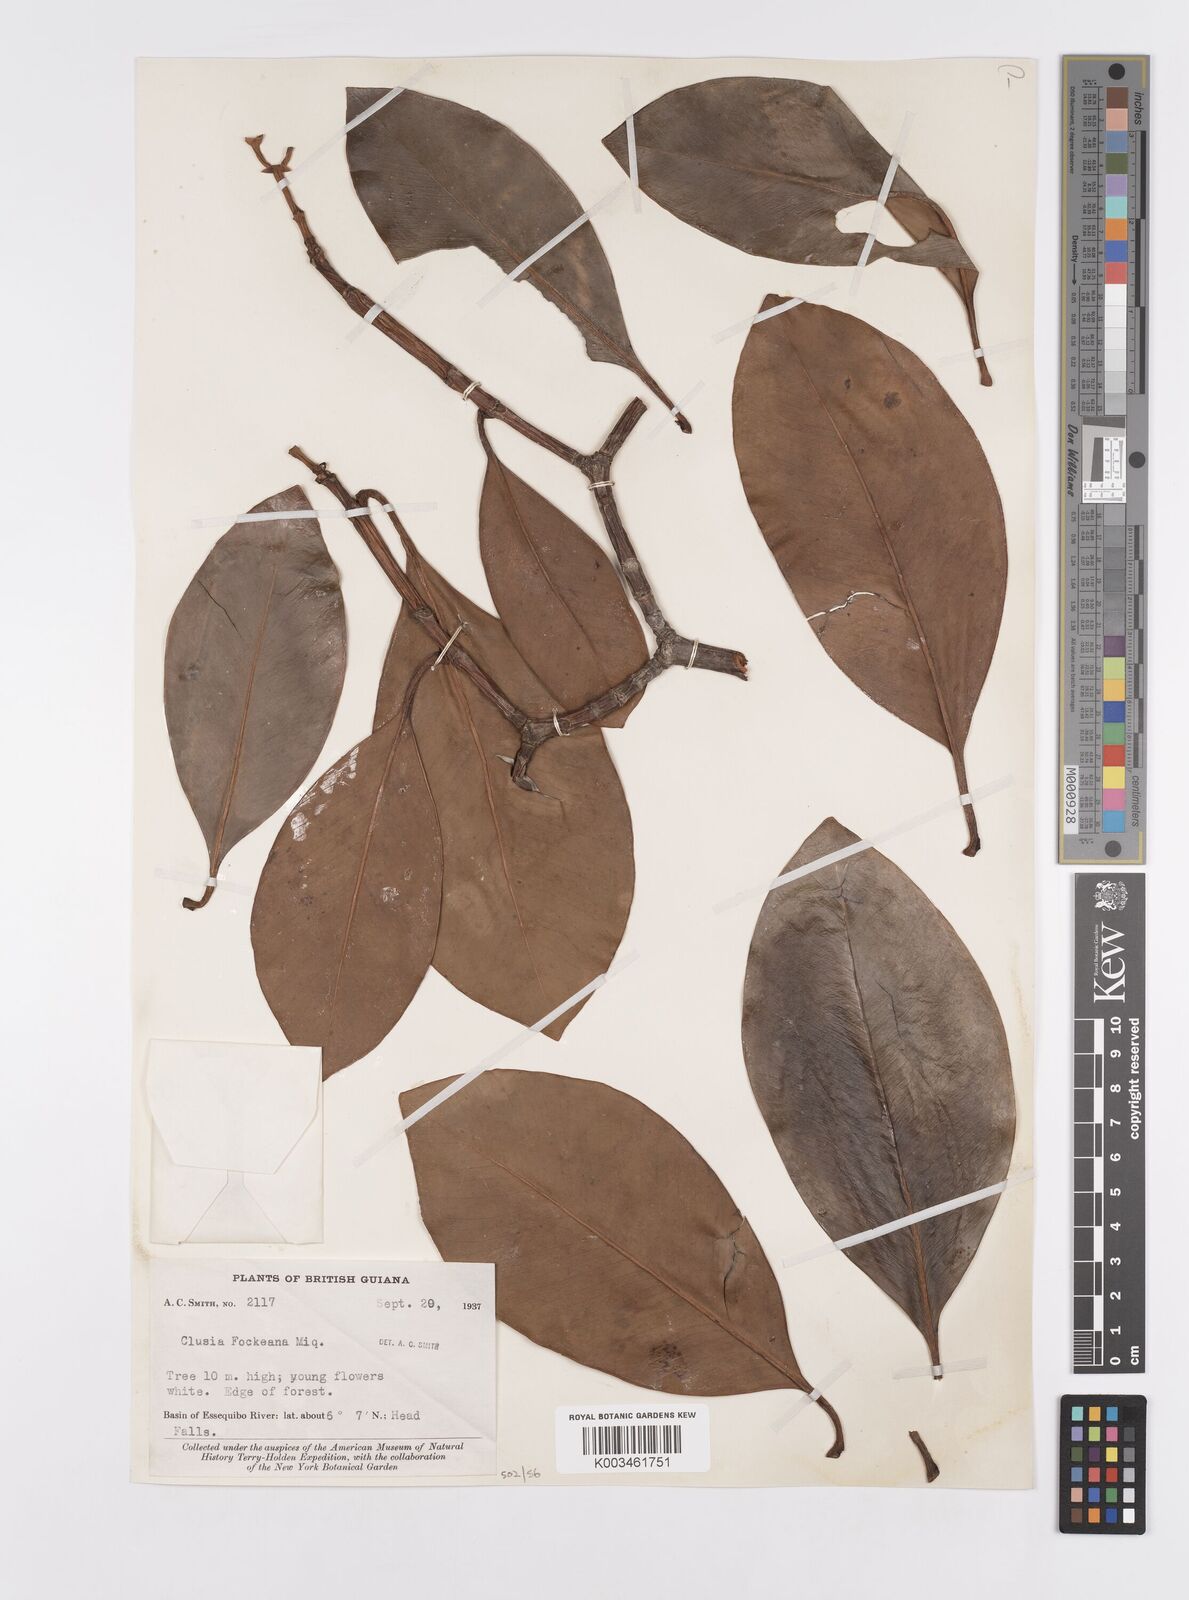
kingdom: Plantae
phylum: Tracheophyta
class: Magnoliopsida
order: Malpighiales
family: Clusiaceae
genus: Clusia
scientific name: Clusia fockeana
